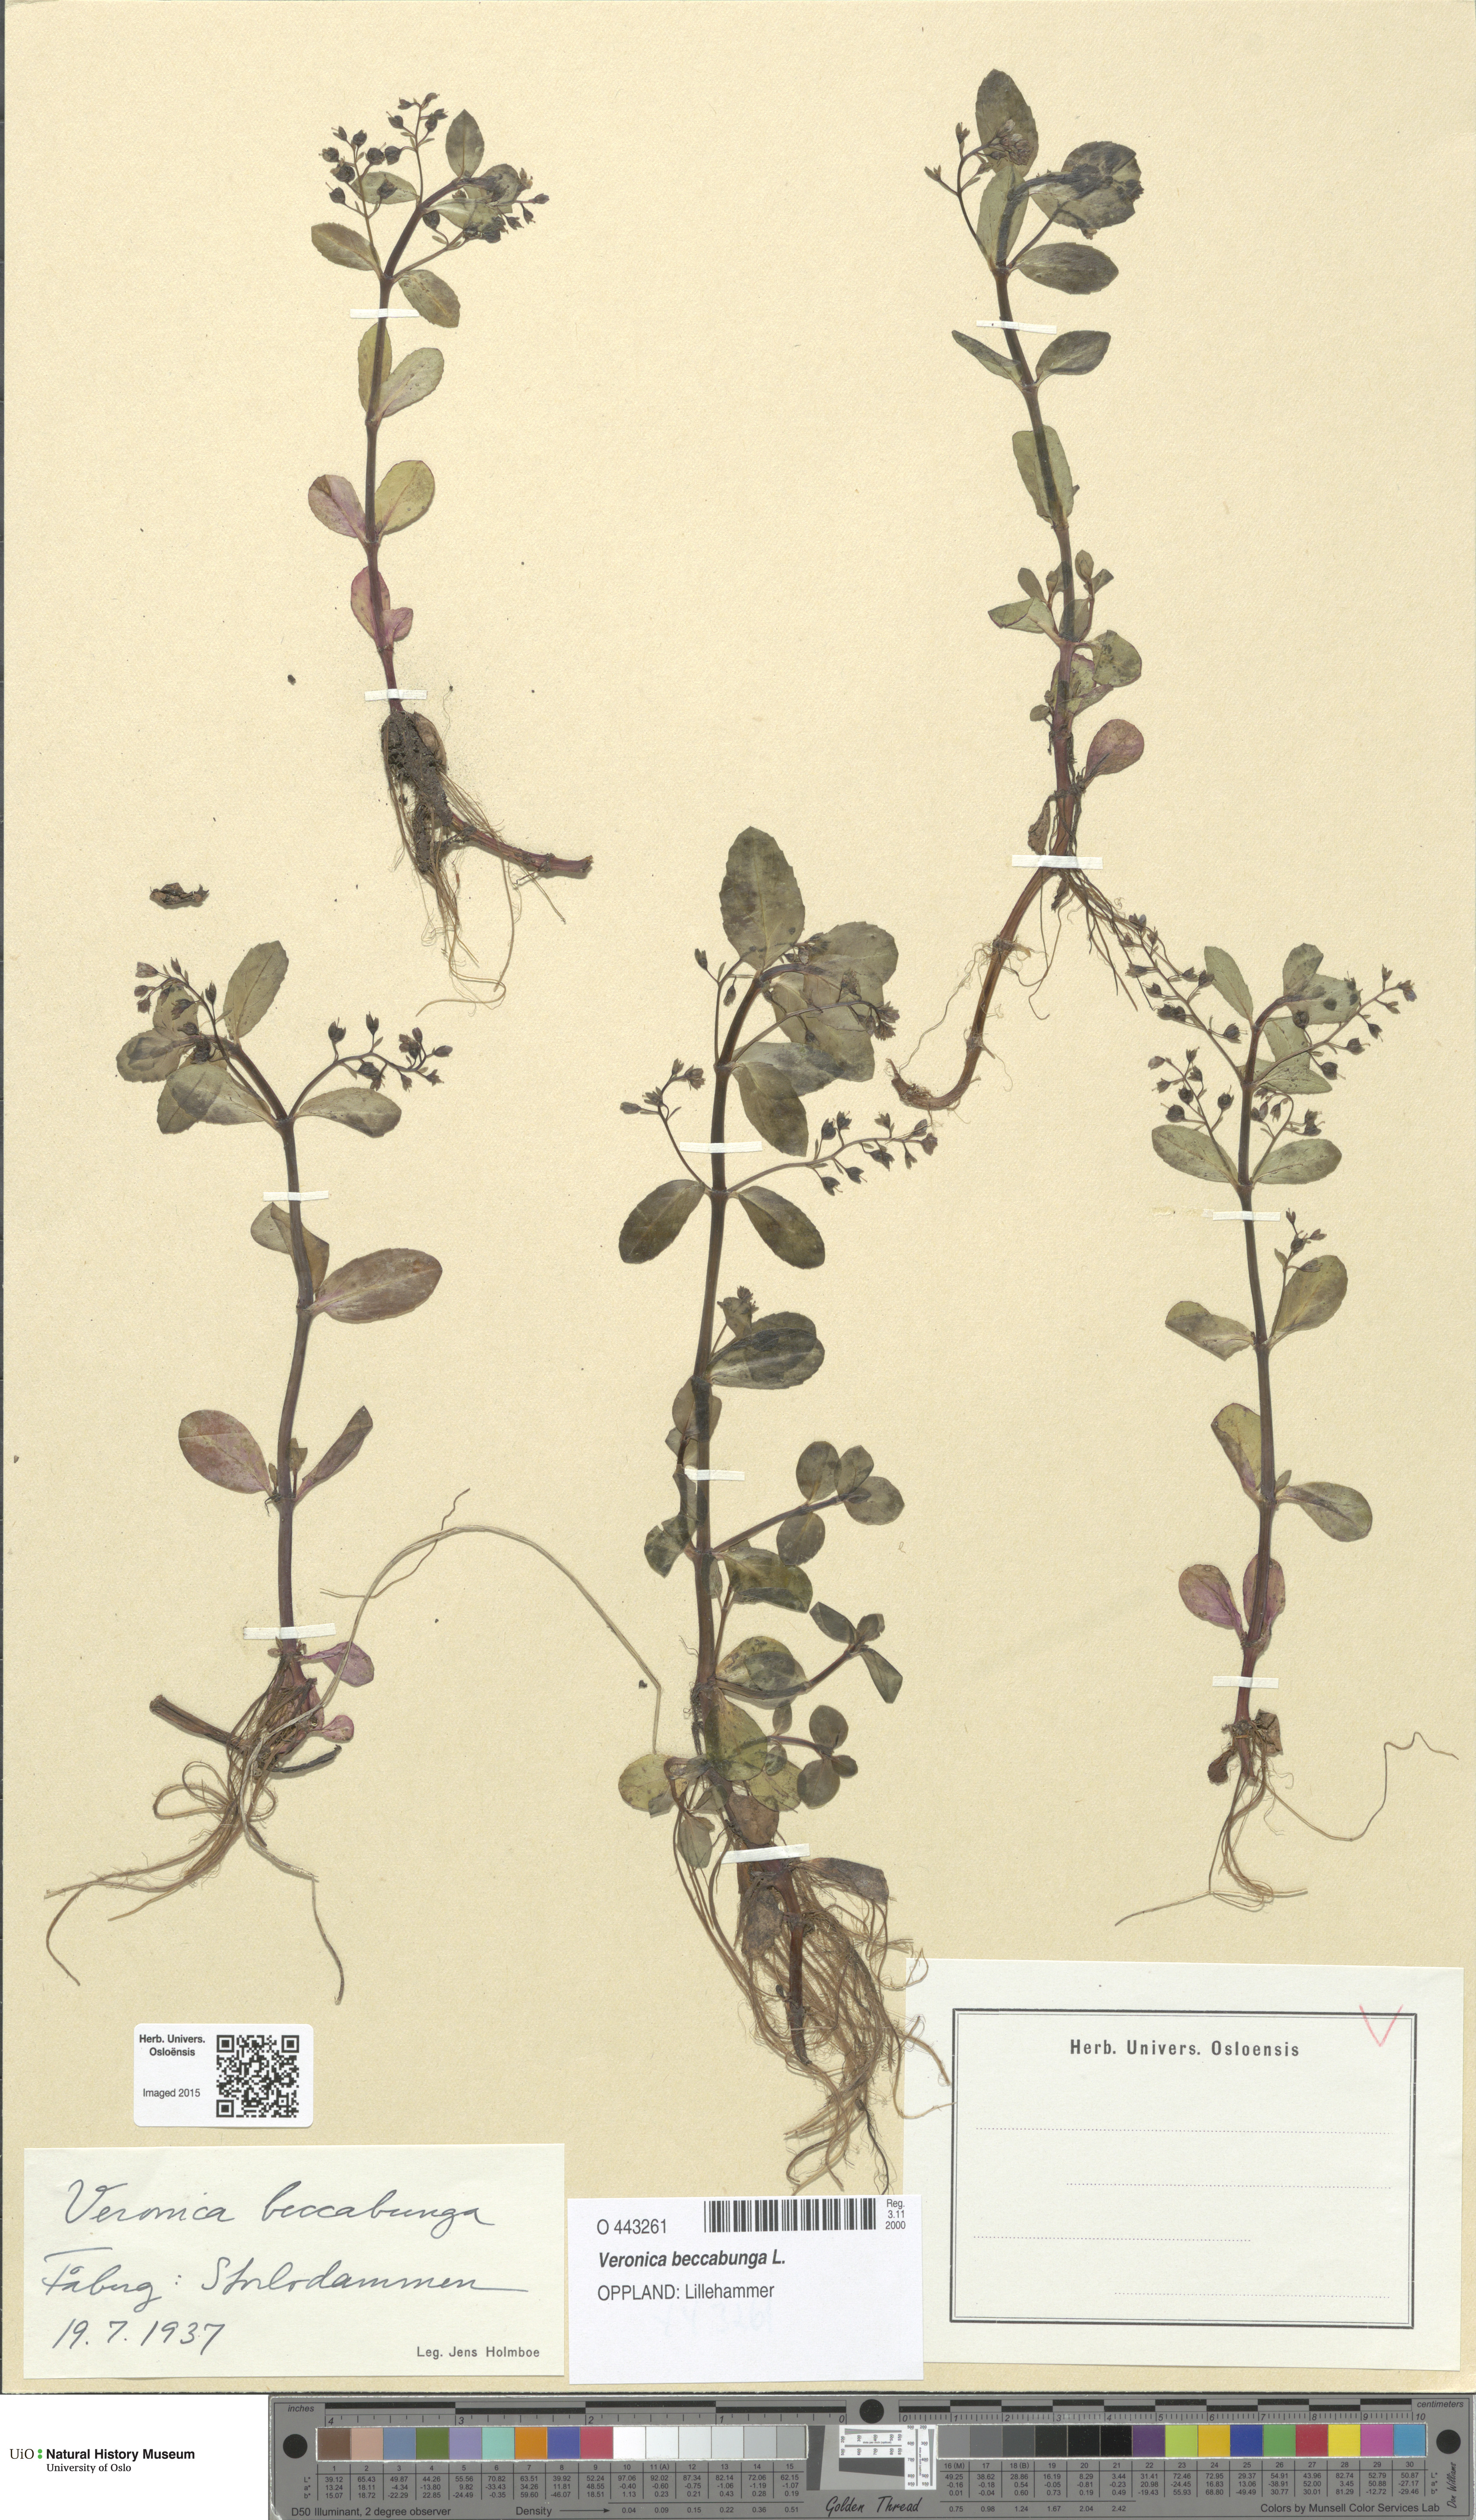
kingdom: Plantae
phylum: Tracheophyta
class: Magnoliopsida
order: Lamiales
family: Plantaginaceae
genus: Veronica
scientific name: Veronica beccabunga
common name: Brooklime
